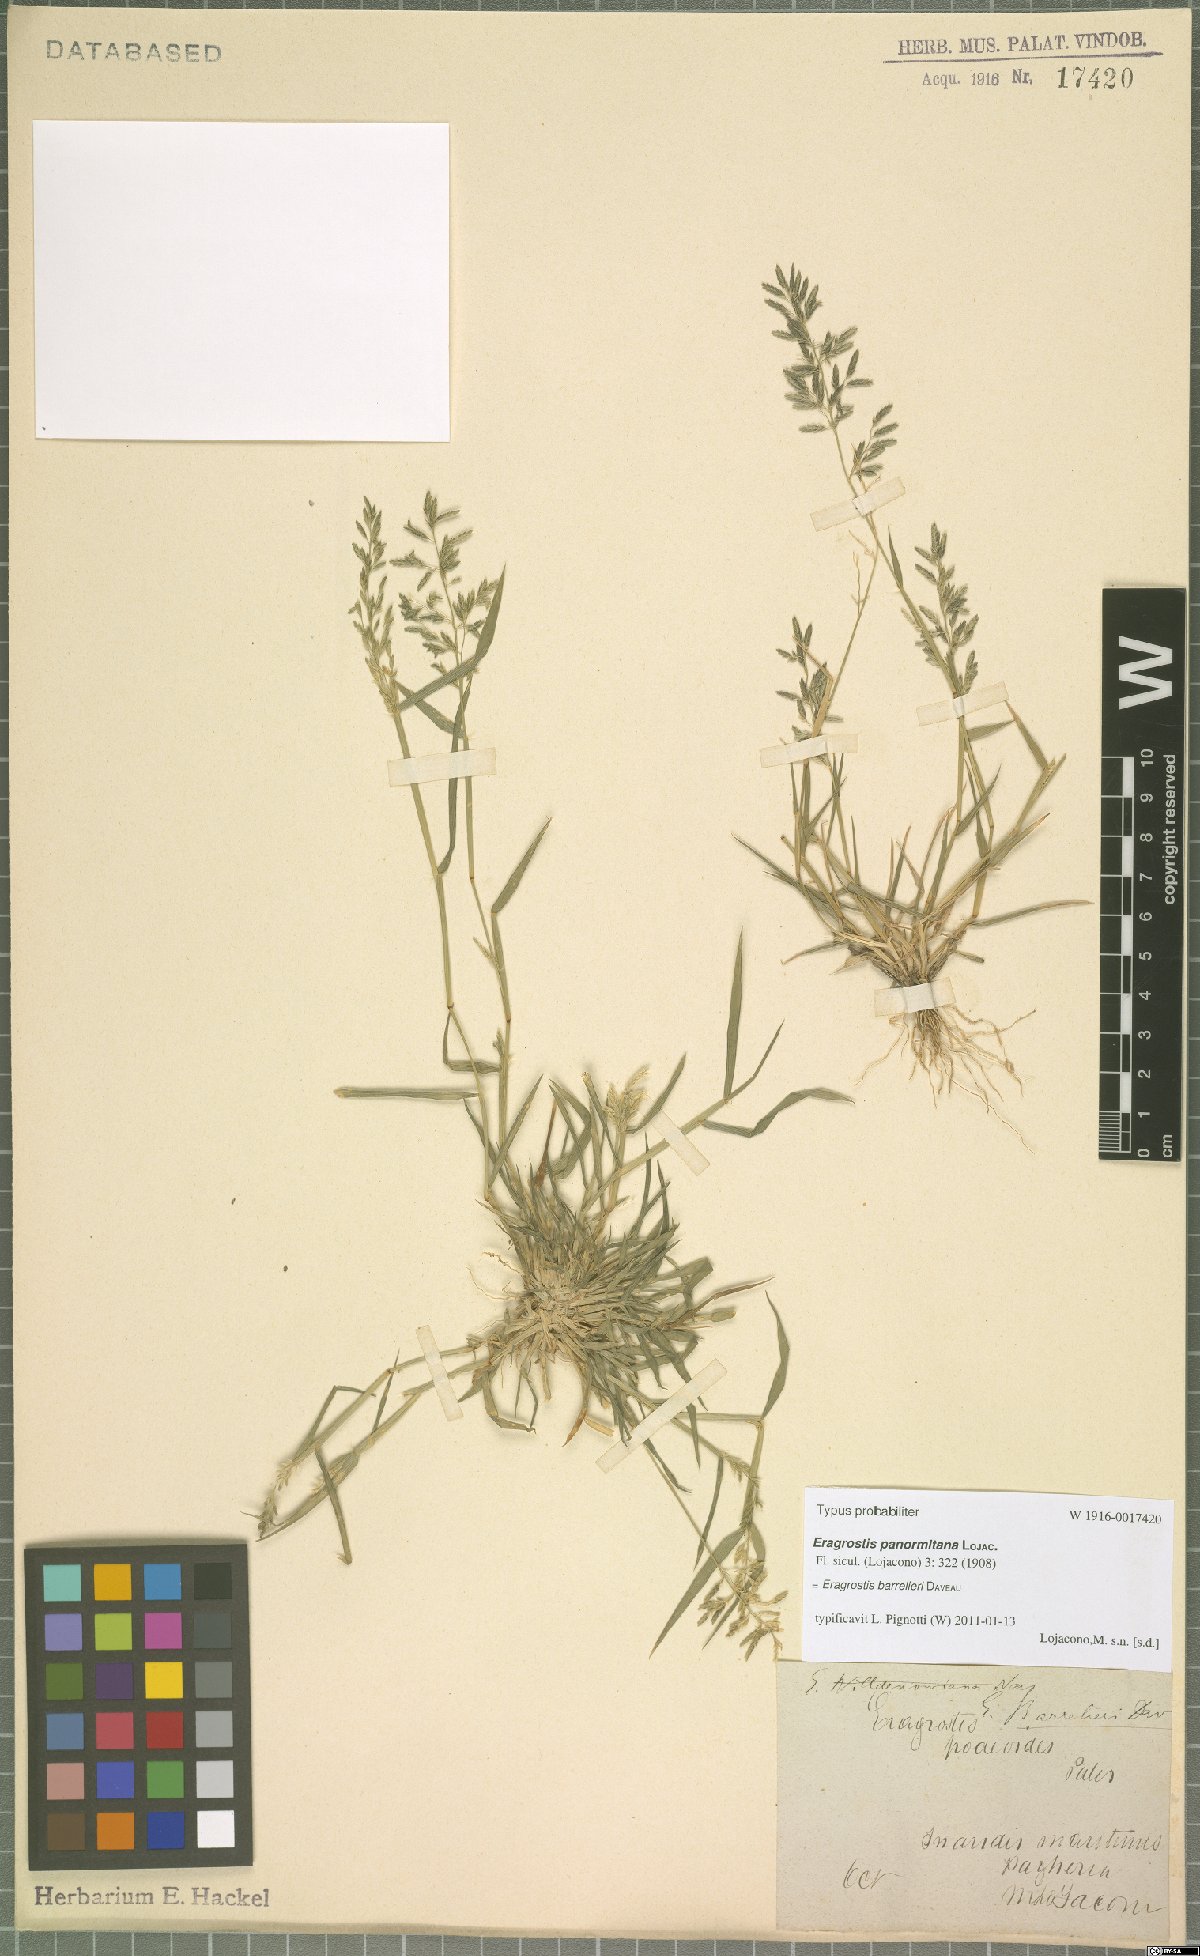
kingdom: Plantae
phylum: Tracheophyta
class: Liliopsida
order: Poales
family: Poaceae
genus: Eragrostis
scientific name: Eragrostis barrelieri
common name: Mediterranean lovegrass
